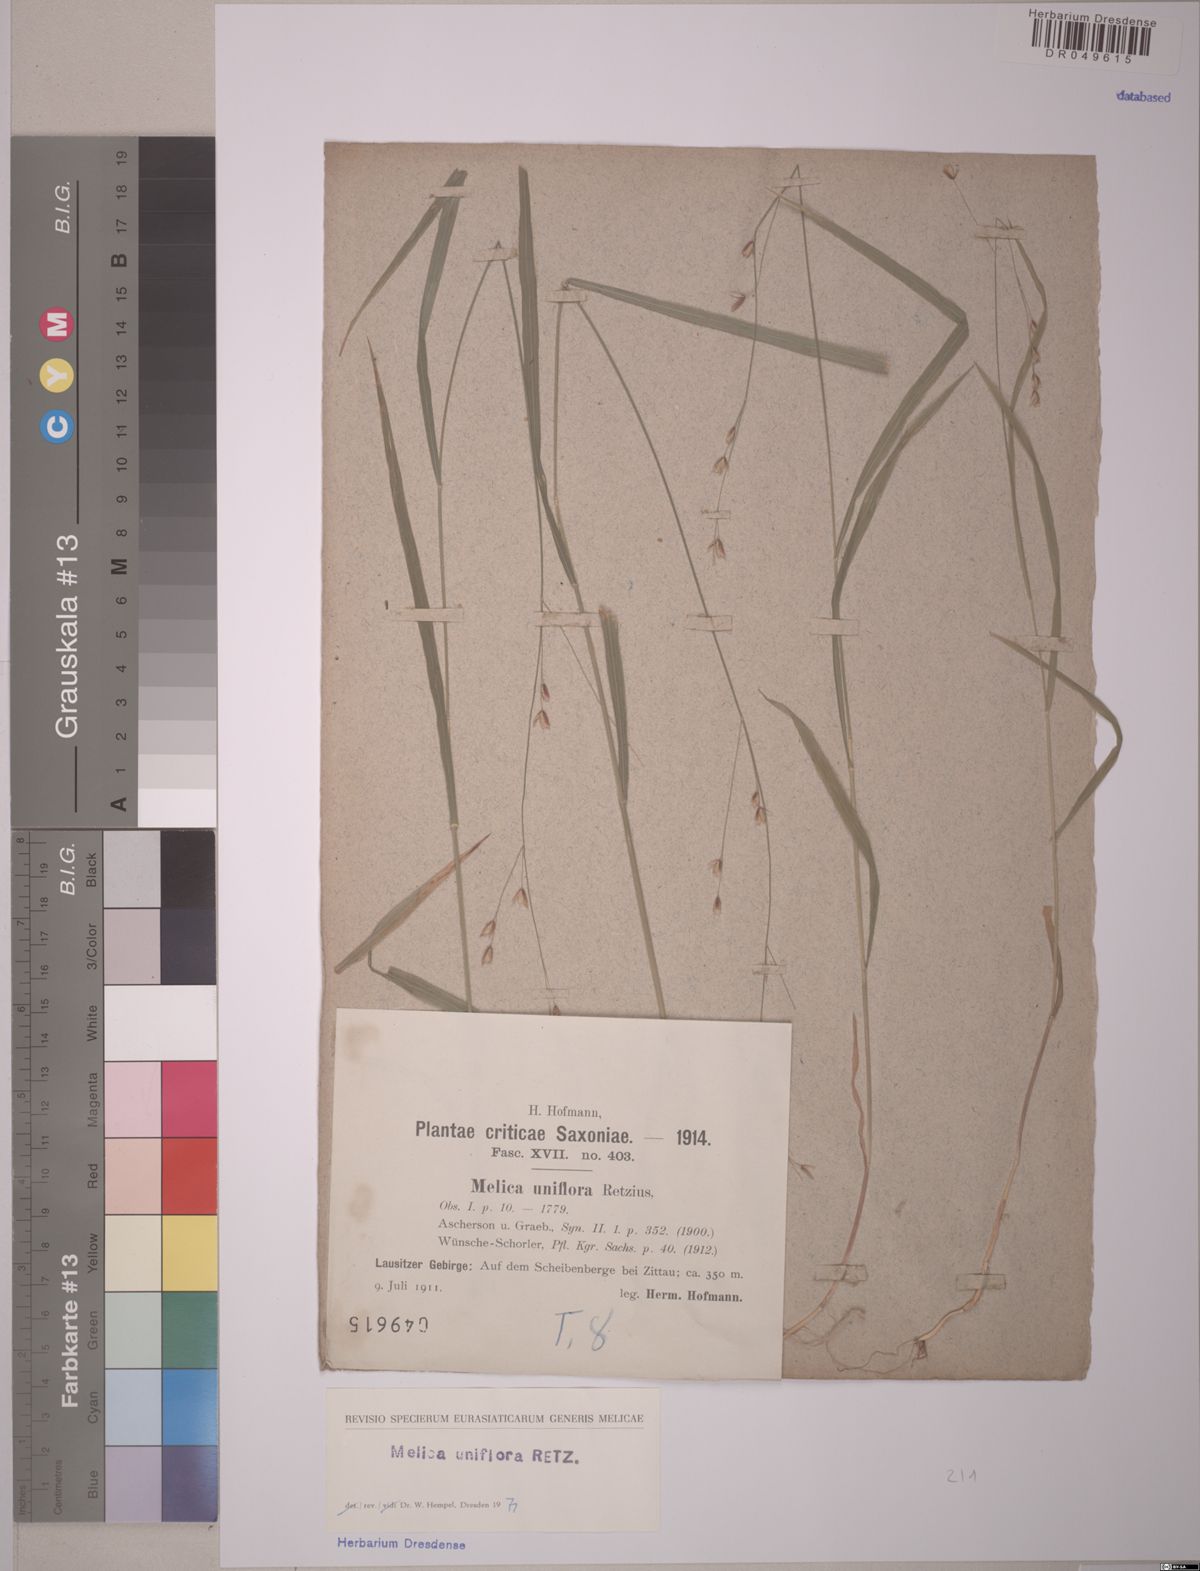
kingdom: Plantae
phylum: Tracheophyta
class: Liliopsida
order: Poales
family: Poaceae
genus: Melica
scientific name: Melica uniflora
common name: Wood melick
